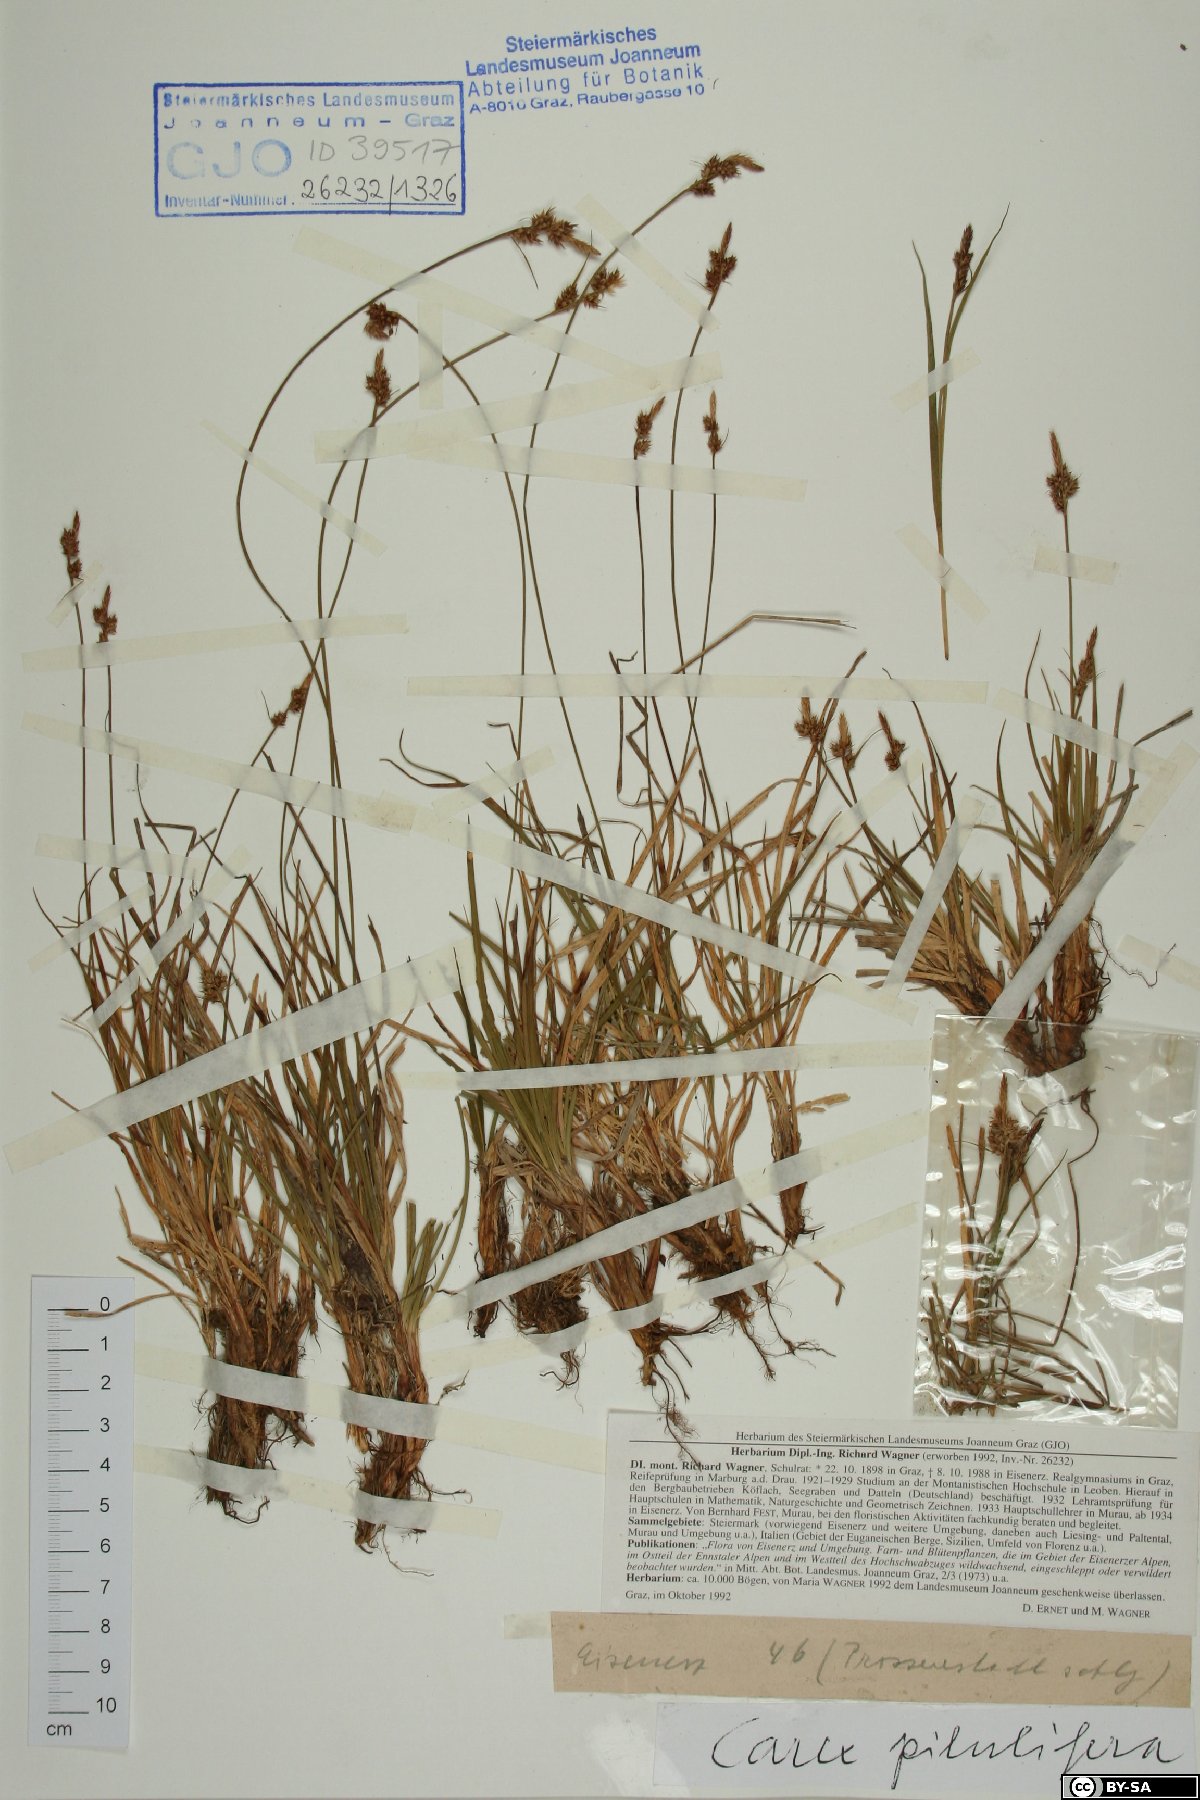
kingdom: Plantae
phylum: Tracheophyta
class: Liliopsida
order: Poales
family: Cyperaceae
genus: Carex
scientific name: Carex pilulifera
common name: Pill sedge
